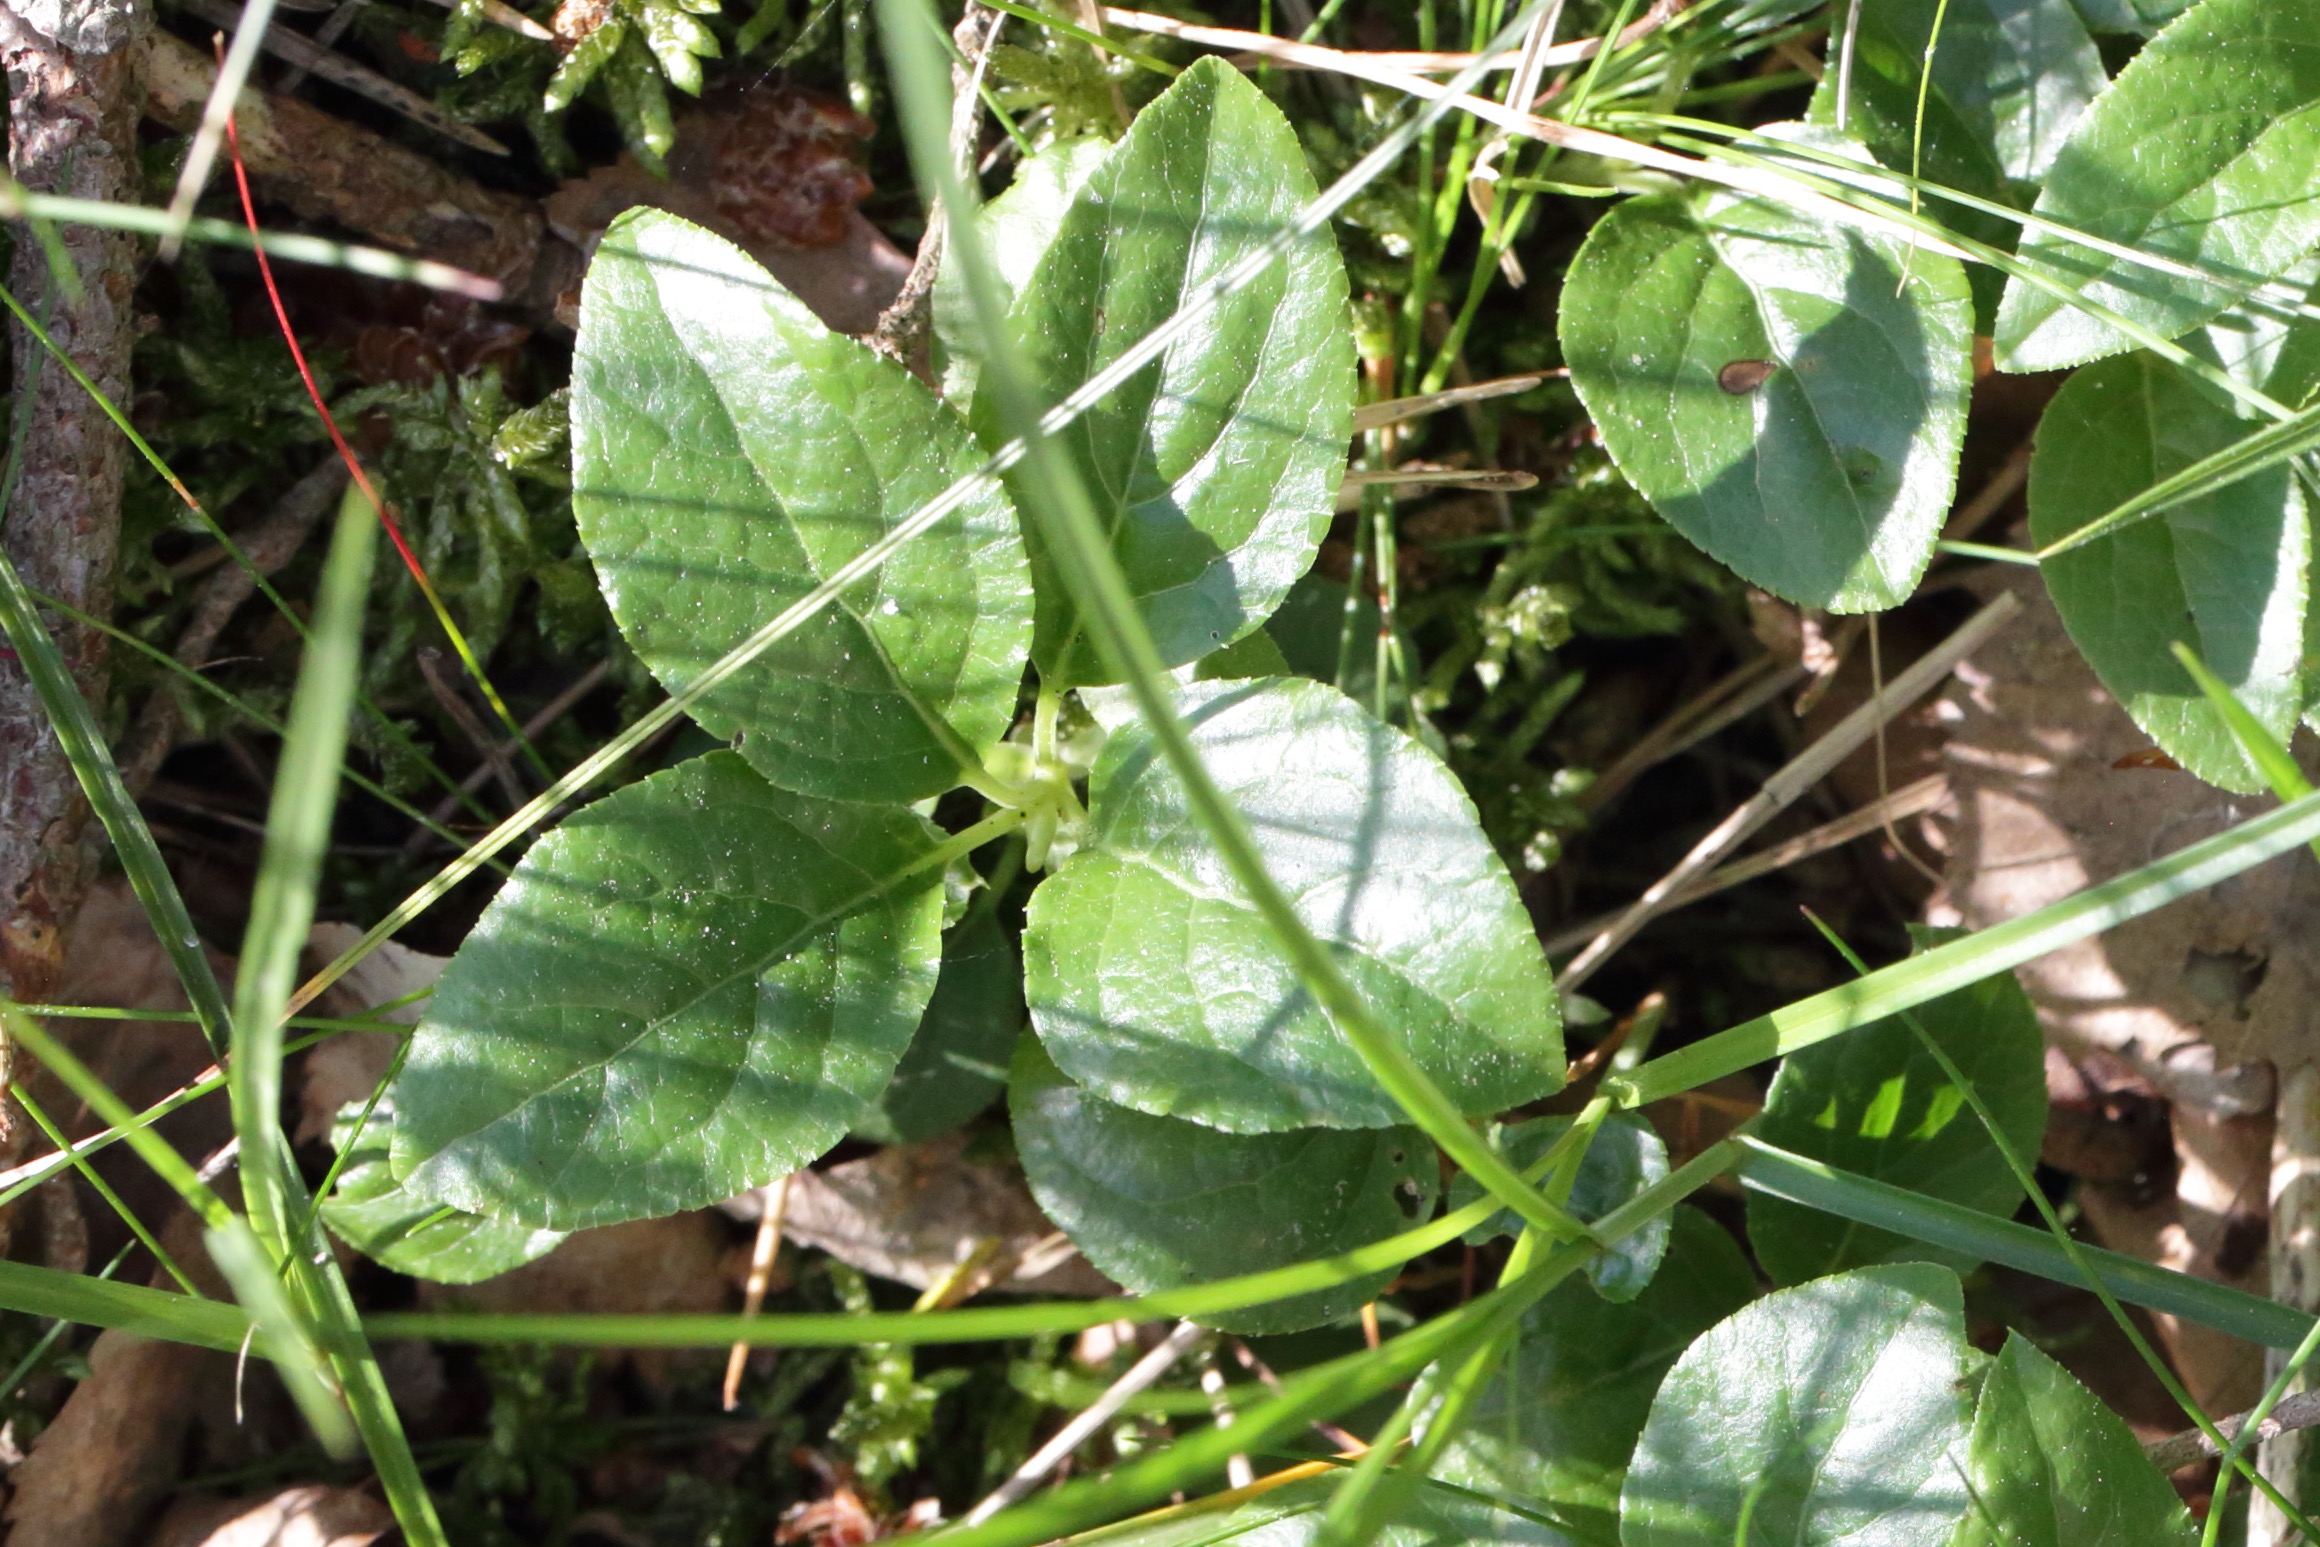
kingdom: Plantae
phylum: Tracheophyta
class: Magnoliopsida
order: Ericales
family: Ericaceae
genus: Orthilia
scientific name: Orthilia secunda
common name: Ensidig vintergrøn
